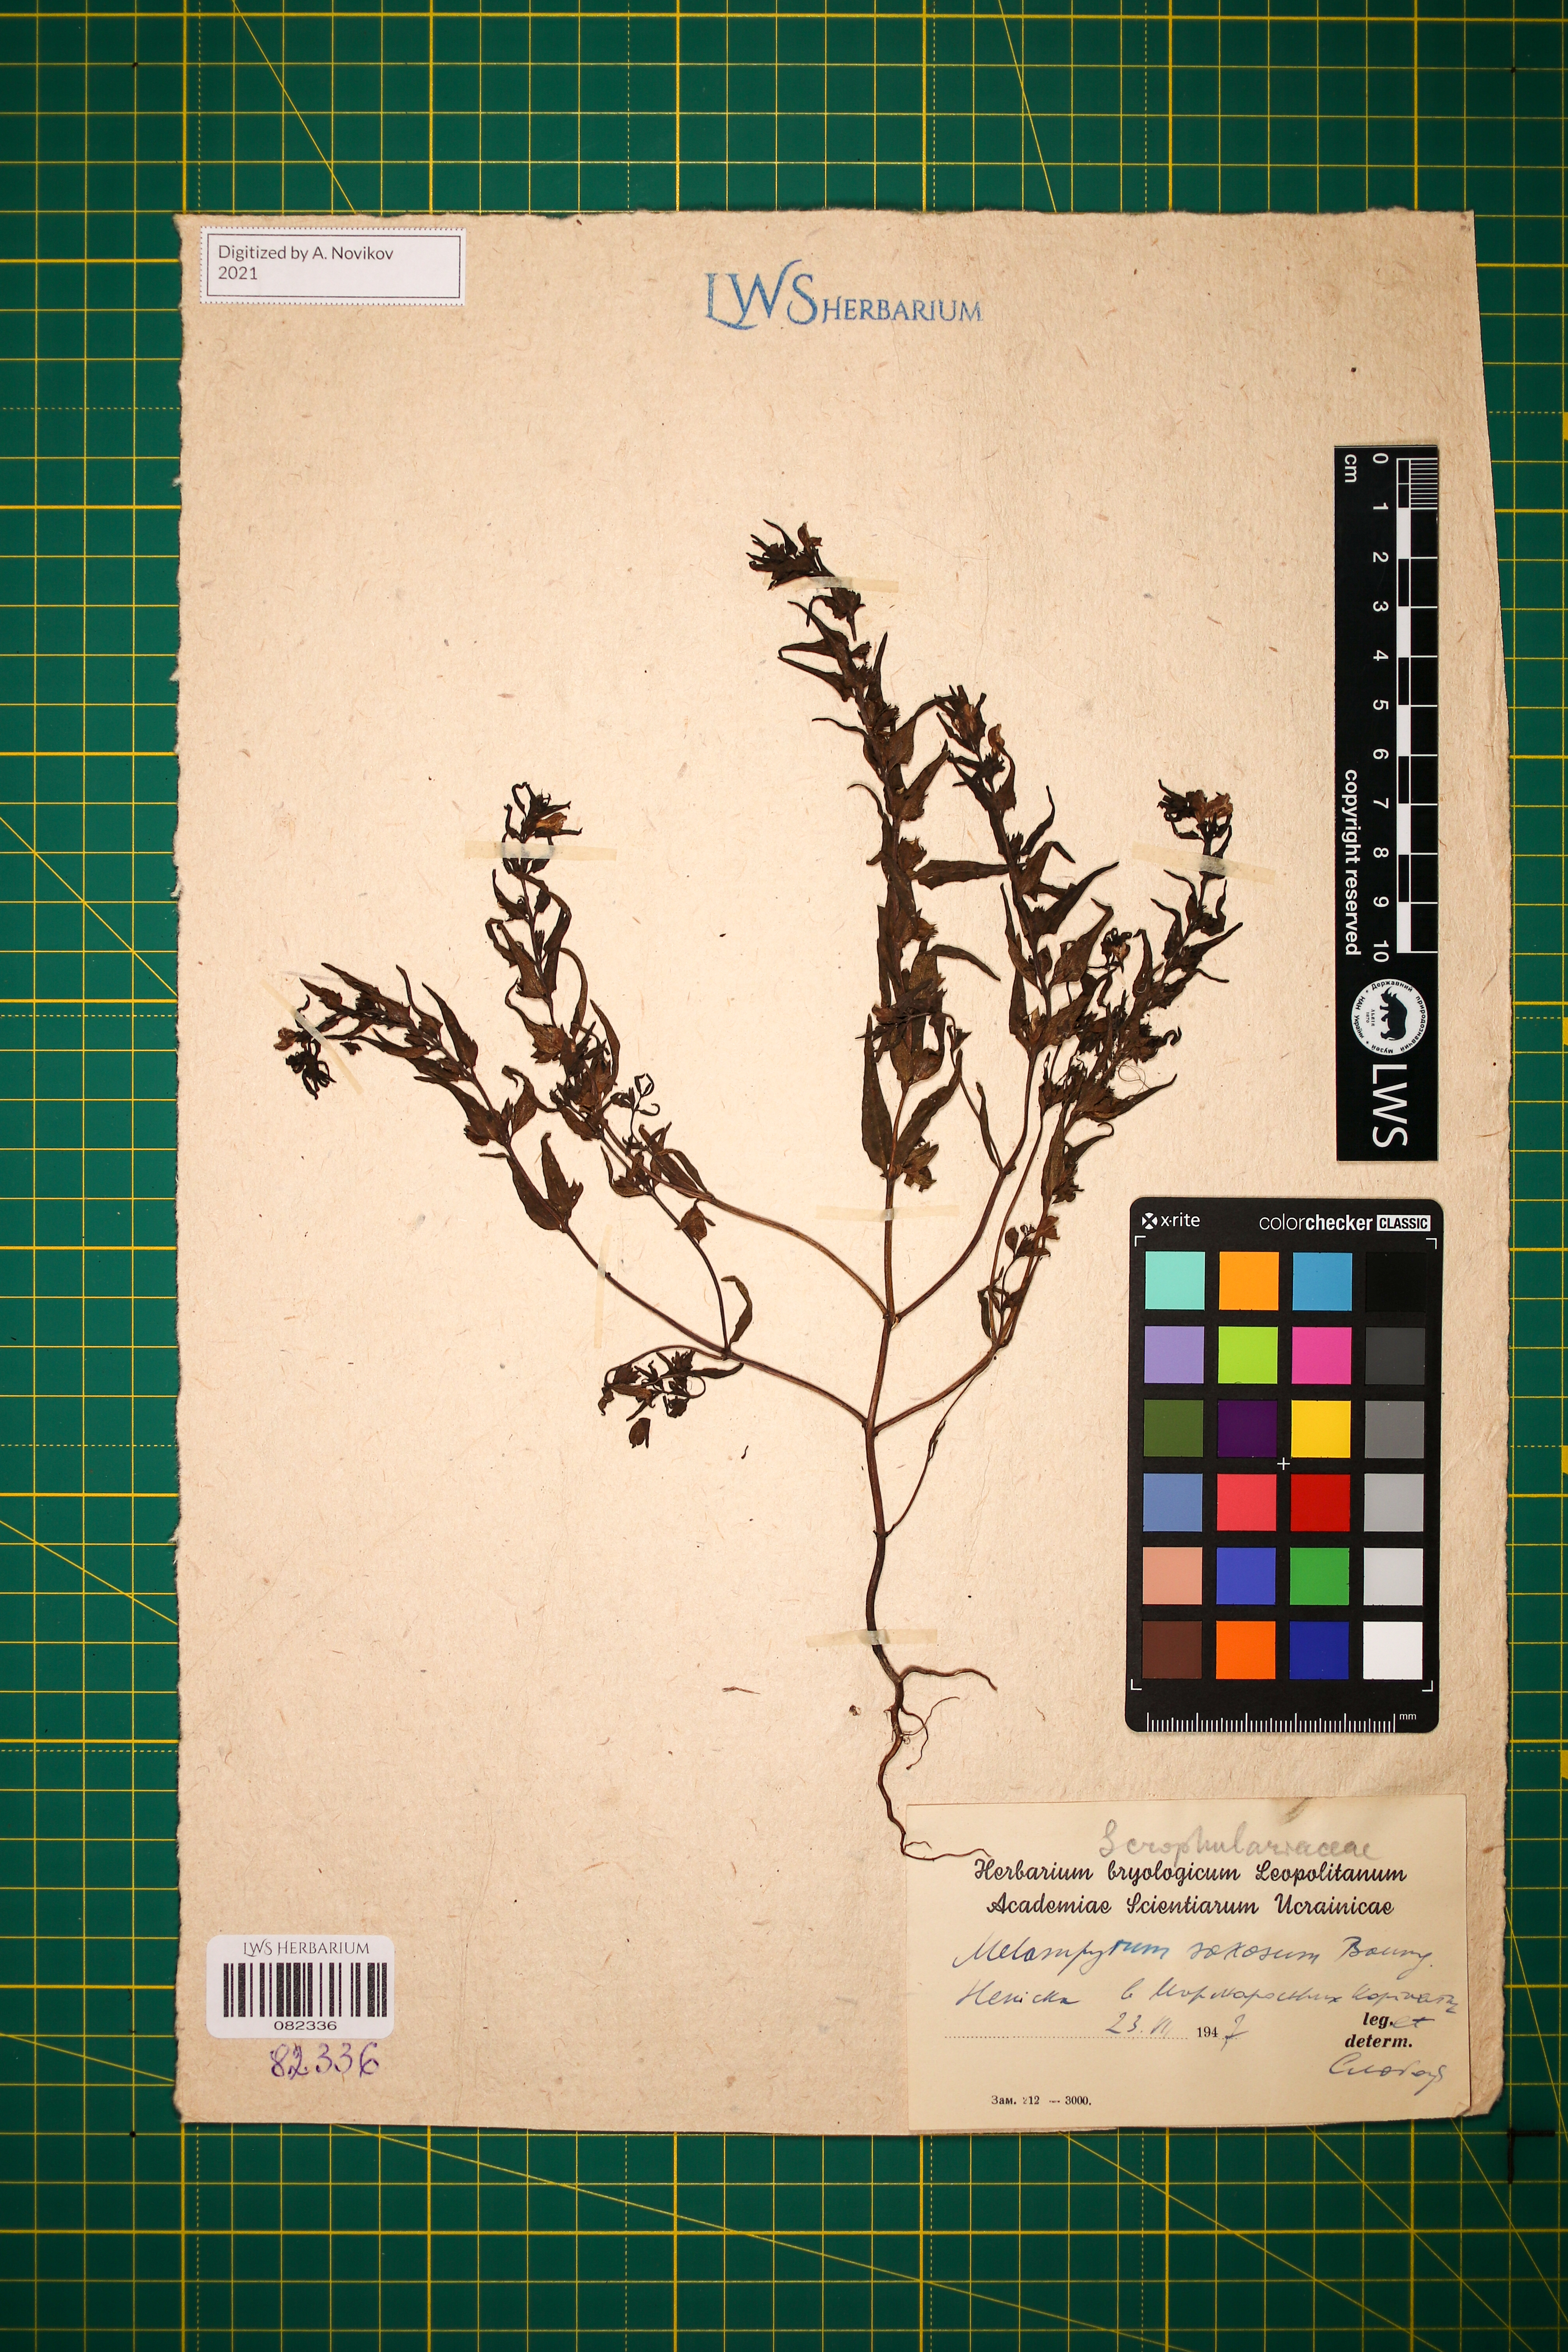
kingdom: Plantae
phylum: Tracheophyta
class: Magnoliopsida
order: Lamiales
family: Orobanchaceae
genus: Melampyrum
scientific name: Melampyrum saxosum
